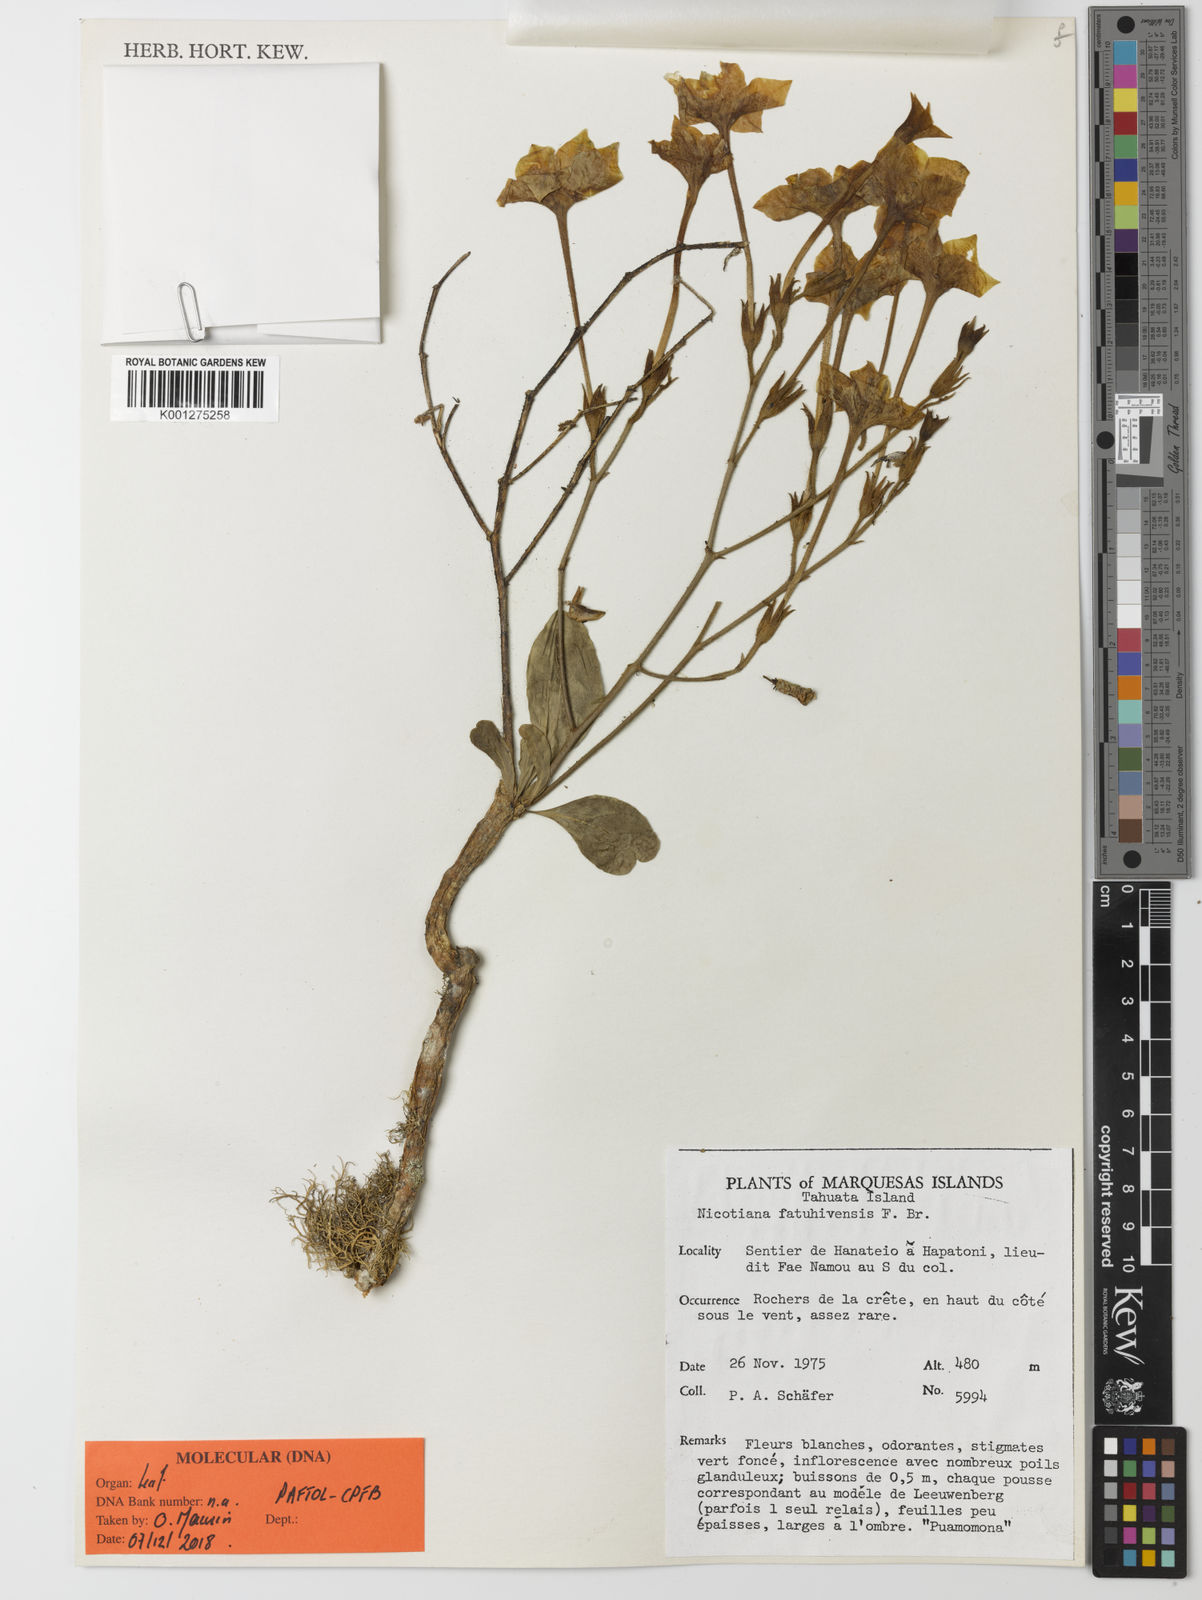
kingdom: Plantae
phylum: Tracheophyta
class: Magnoliopsida
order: Solanales
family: Solanaceae
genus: Nicotiana
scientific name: Nicotiana fatuhivensis
